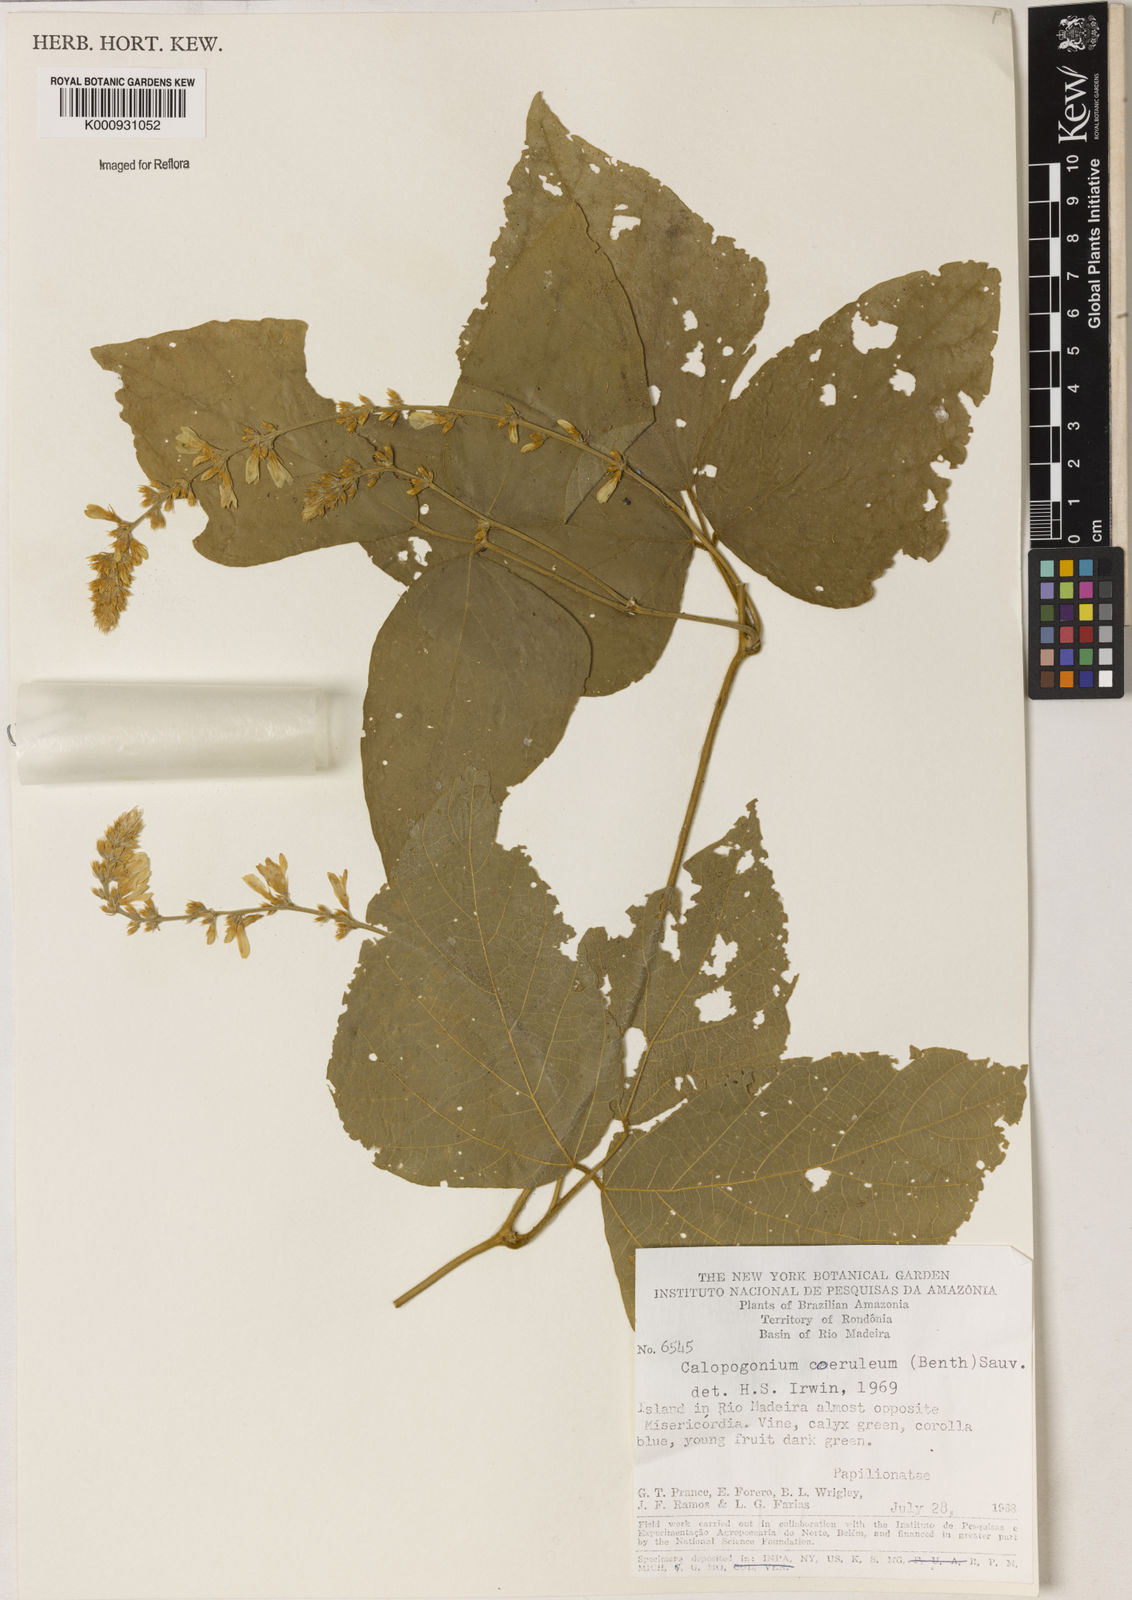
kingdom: Plantae
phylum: Tracheophyta
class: Magnoliopsida
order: Fabales
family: Fabaceae
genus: Calopogonium
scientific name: Calopogonium caeruleum
